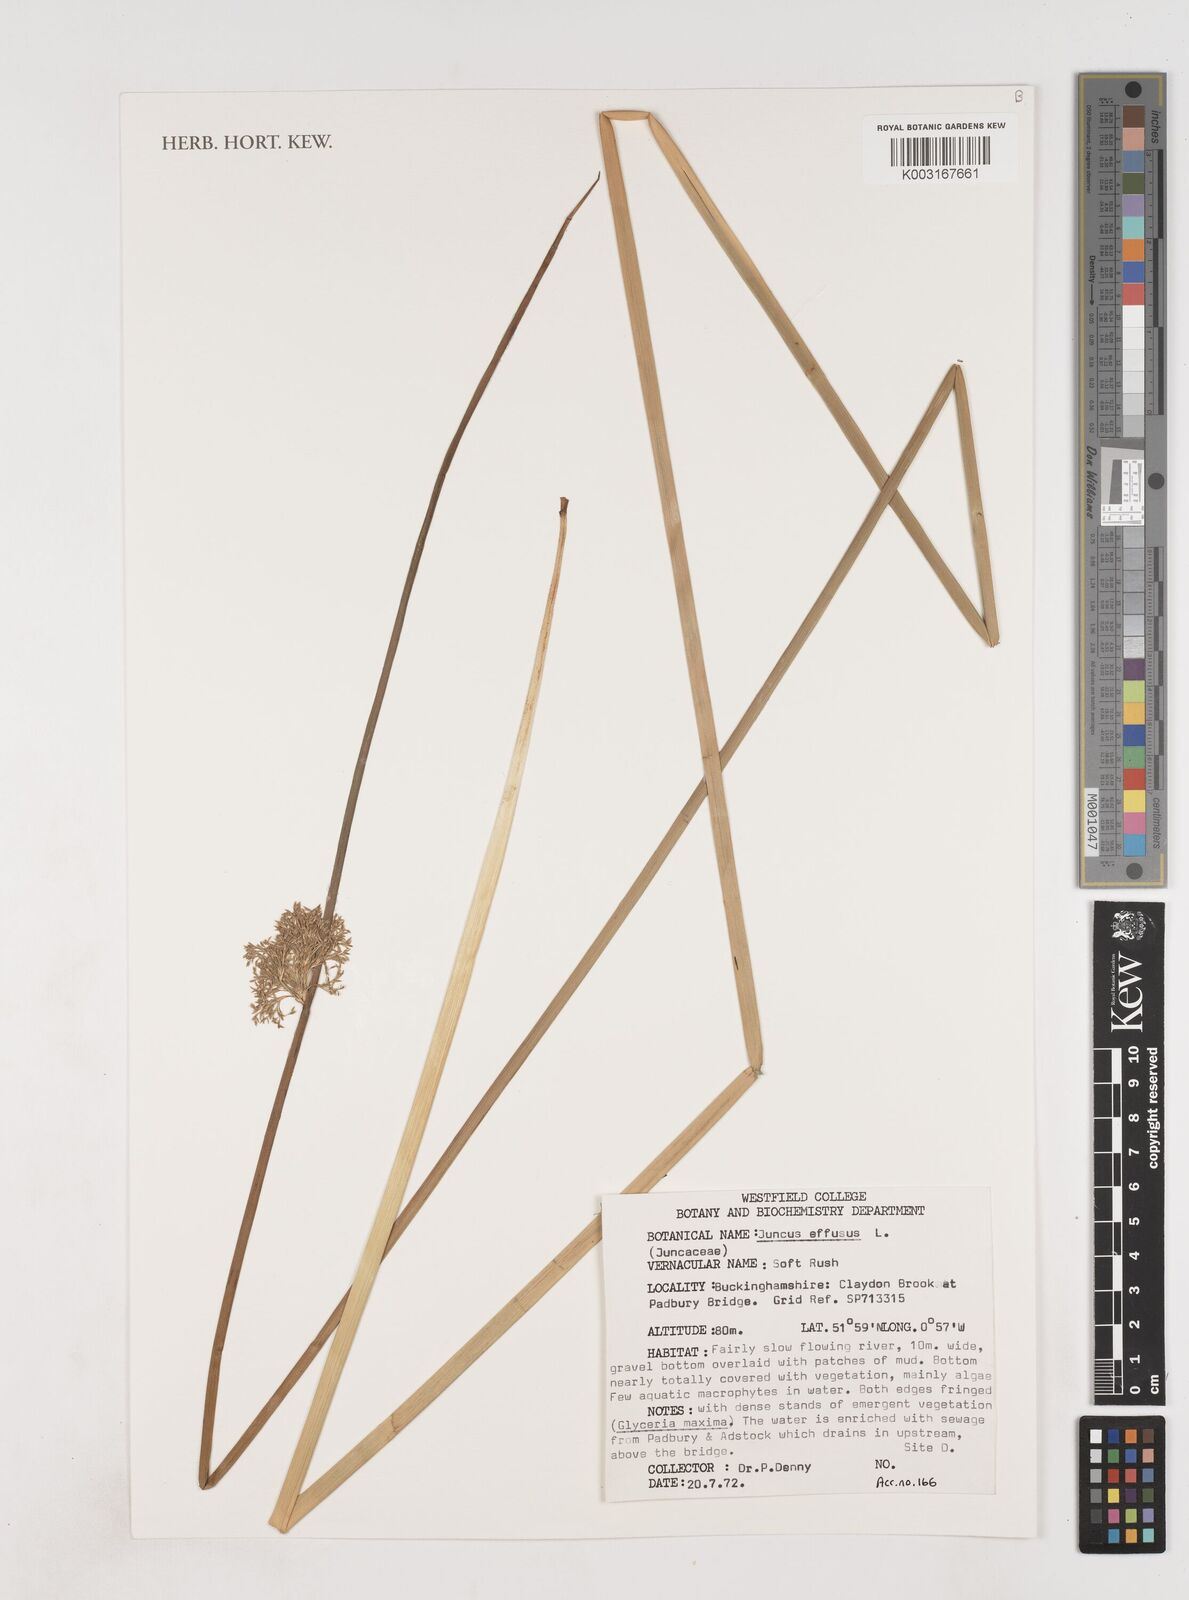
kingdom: Plantae
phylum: Tracheophyta
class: Liliopsida
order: Poales
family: Juncaceae
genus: Juncus
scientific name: Juncus effusus
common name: Soft rush
